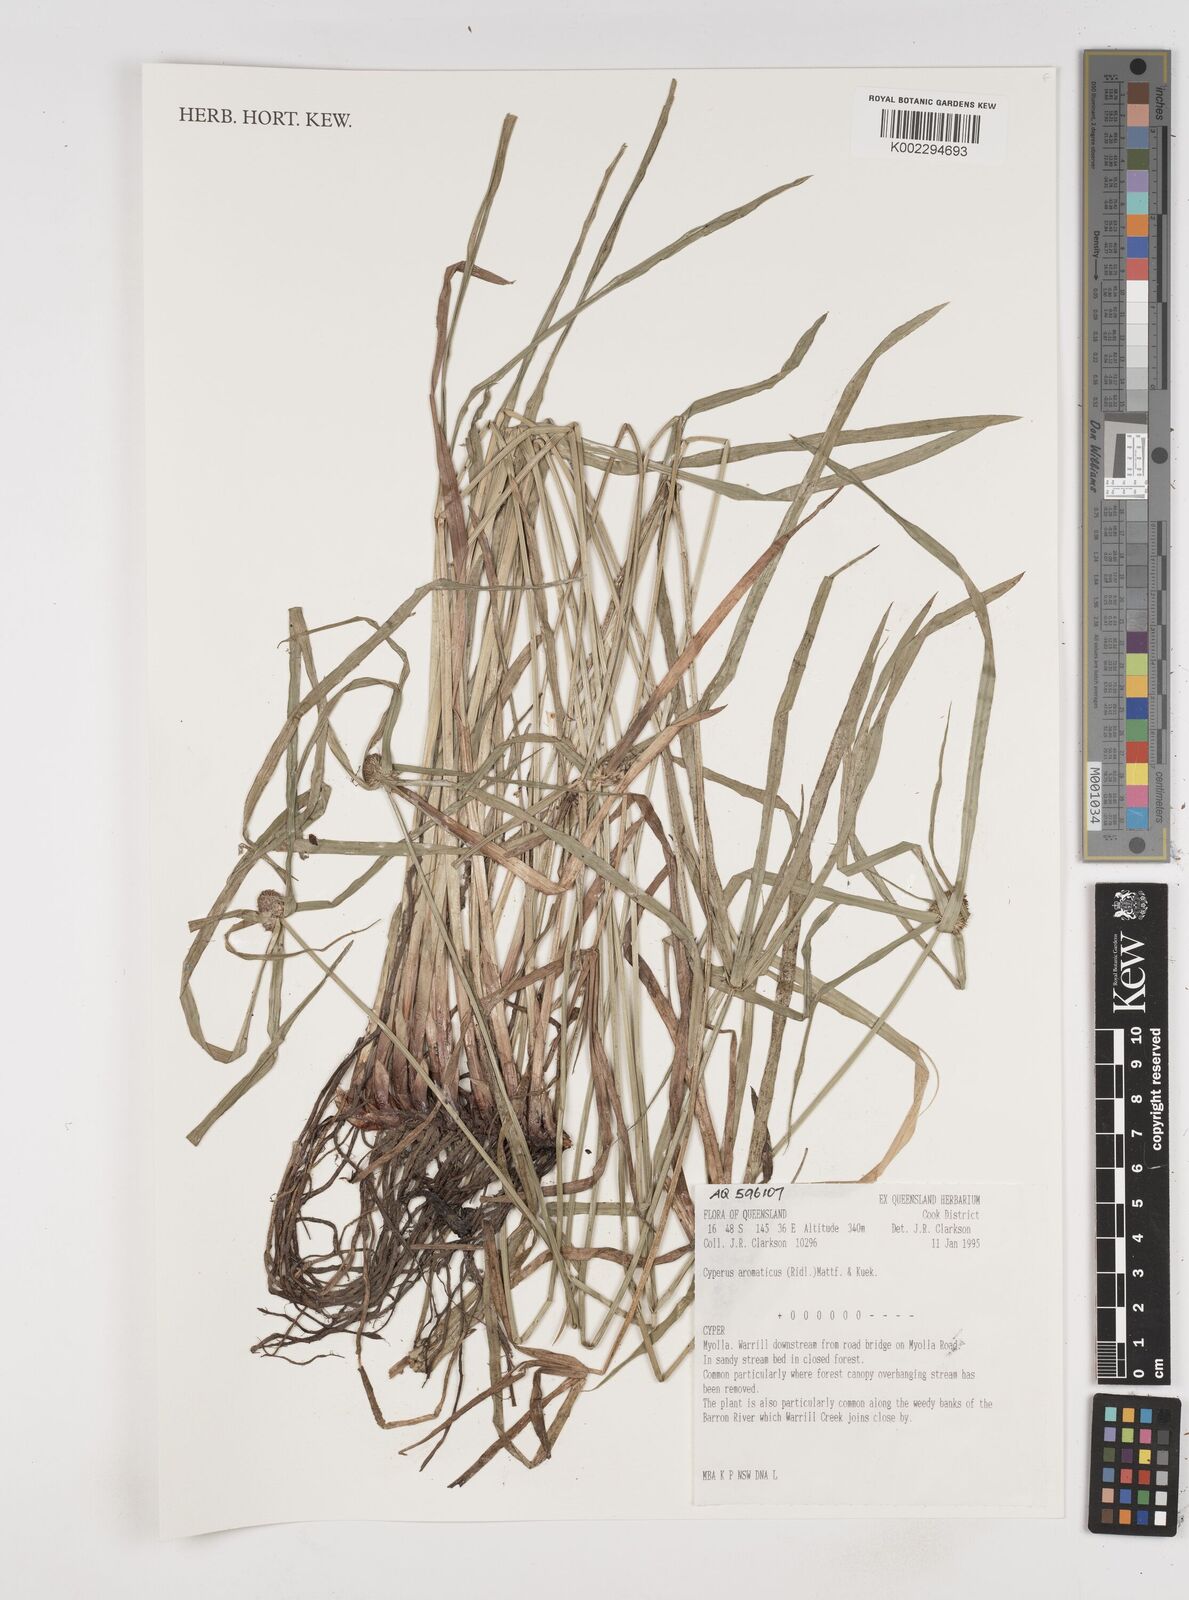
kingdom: Plantae
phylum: Tracheophyta
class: Liliopsida
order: Poales
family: Cyperaceae
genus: Cyperus
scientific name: Cyperus aromaticus
